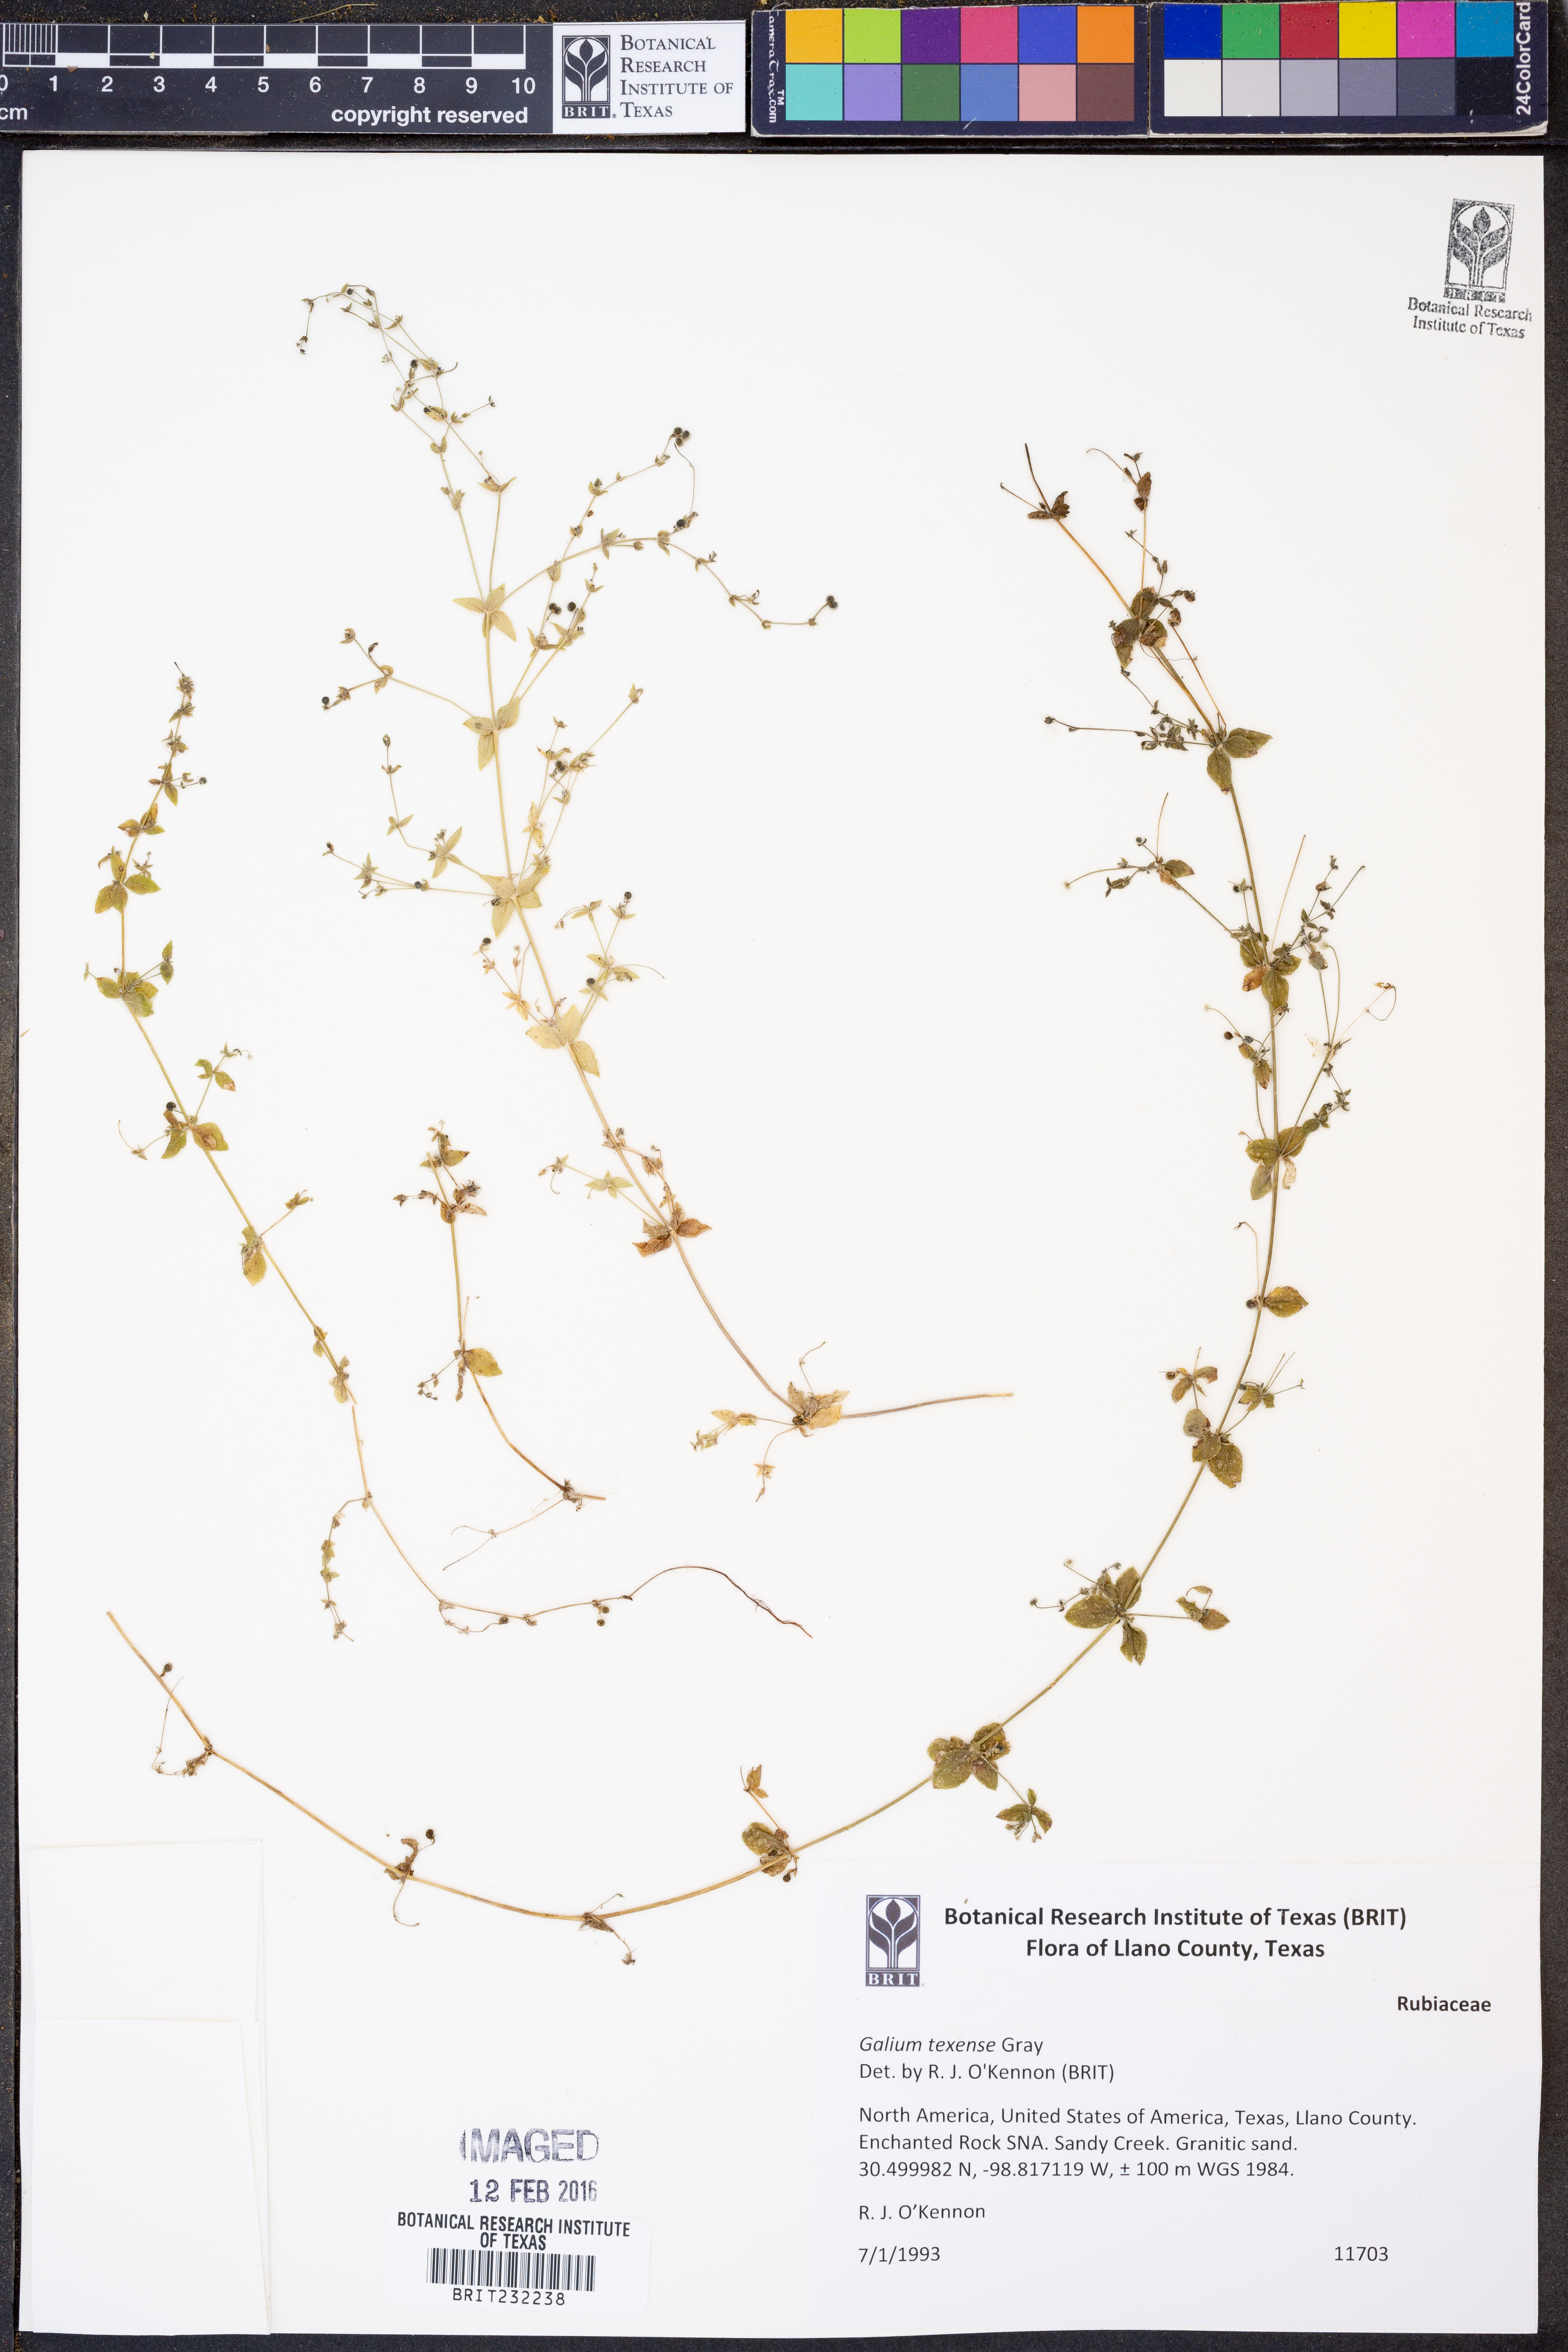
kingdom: Plantae
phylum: Tracheophyta
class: Magnoliopsida
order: Gentianales
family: Rubiaceae
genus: Galium
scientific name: Galium texense
